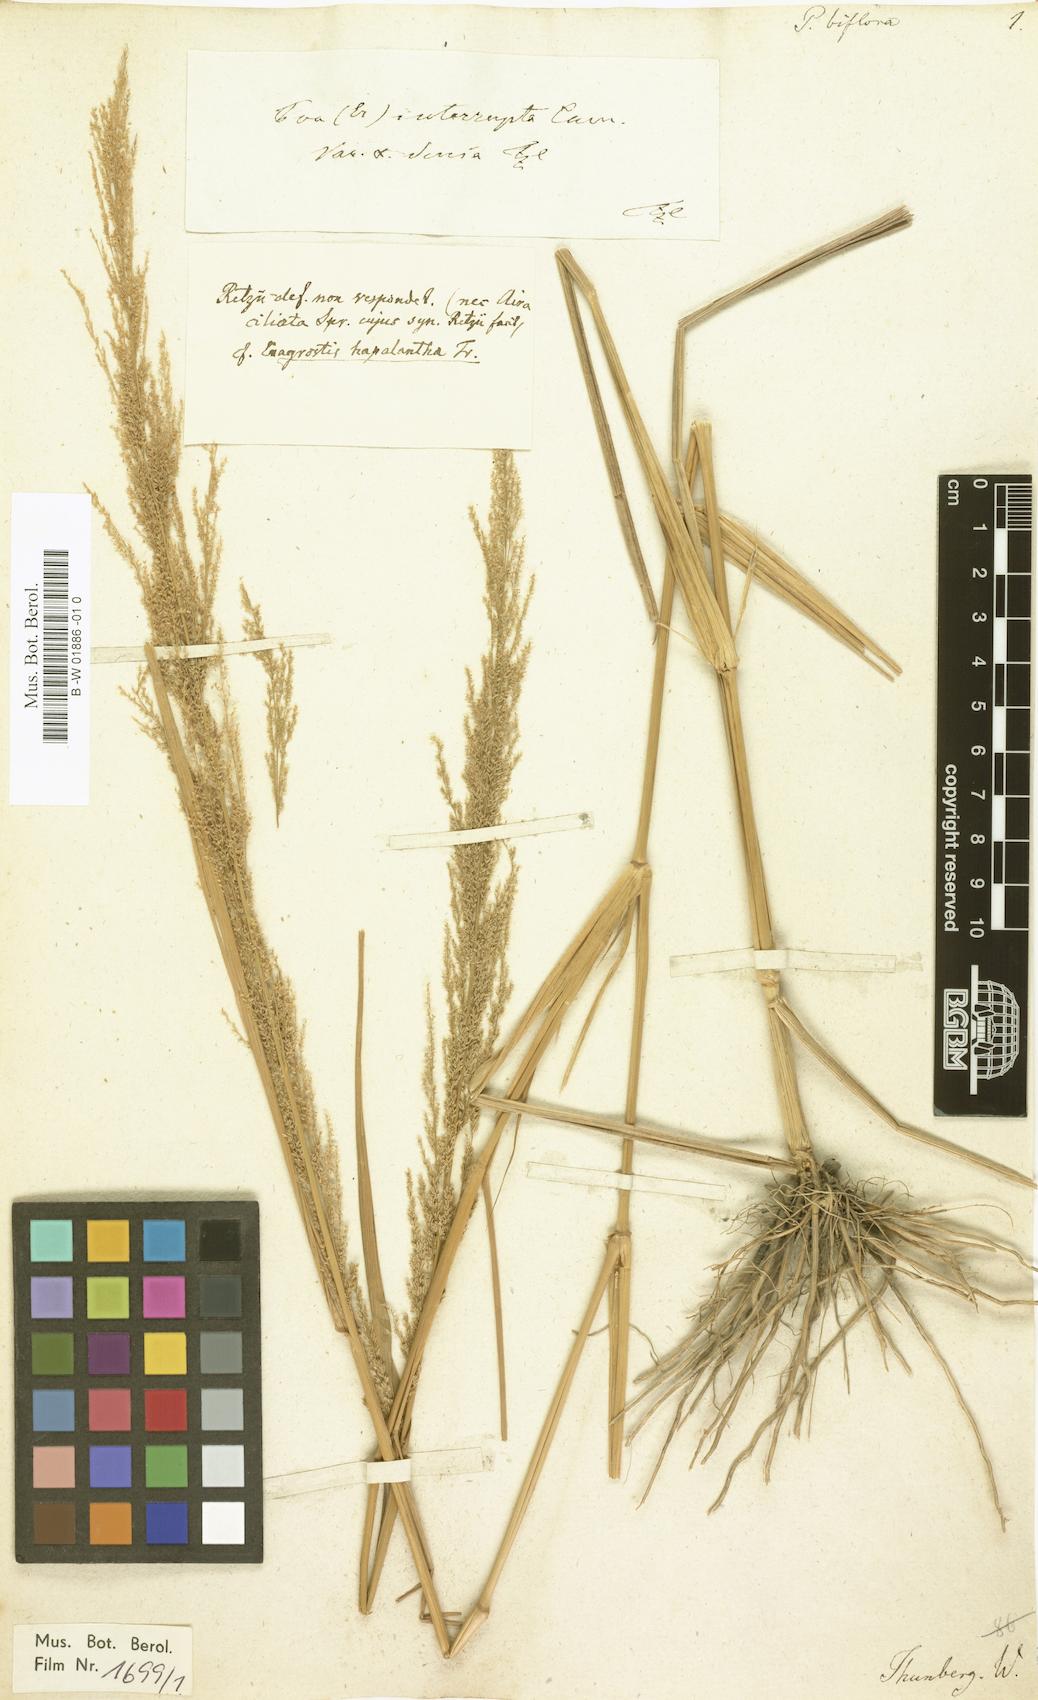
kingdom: Plantae
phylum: Tracheophyta
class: Liliopsida
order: Poales
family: Poaceae
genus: Eragrostis
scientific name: Eragrostis japonica
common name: Pond lovegrass
